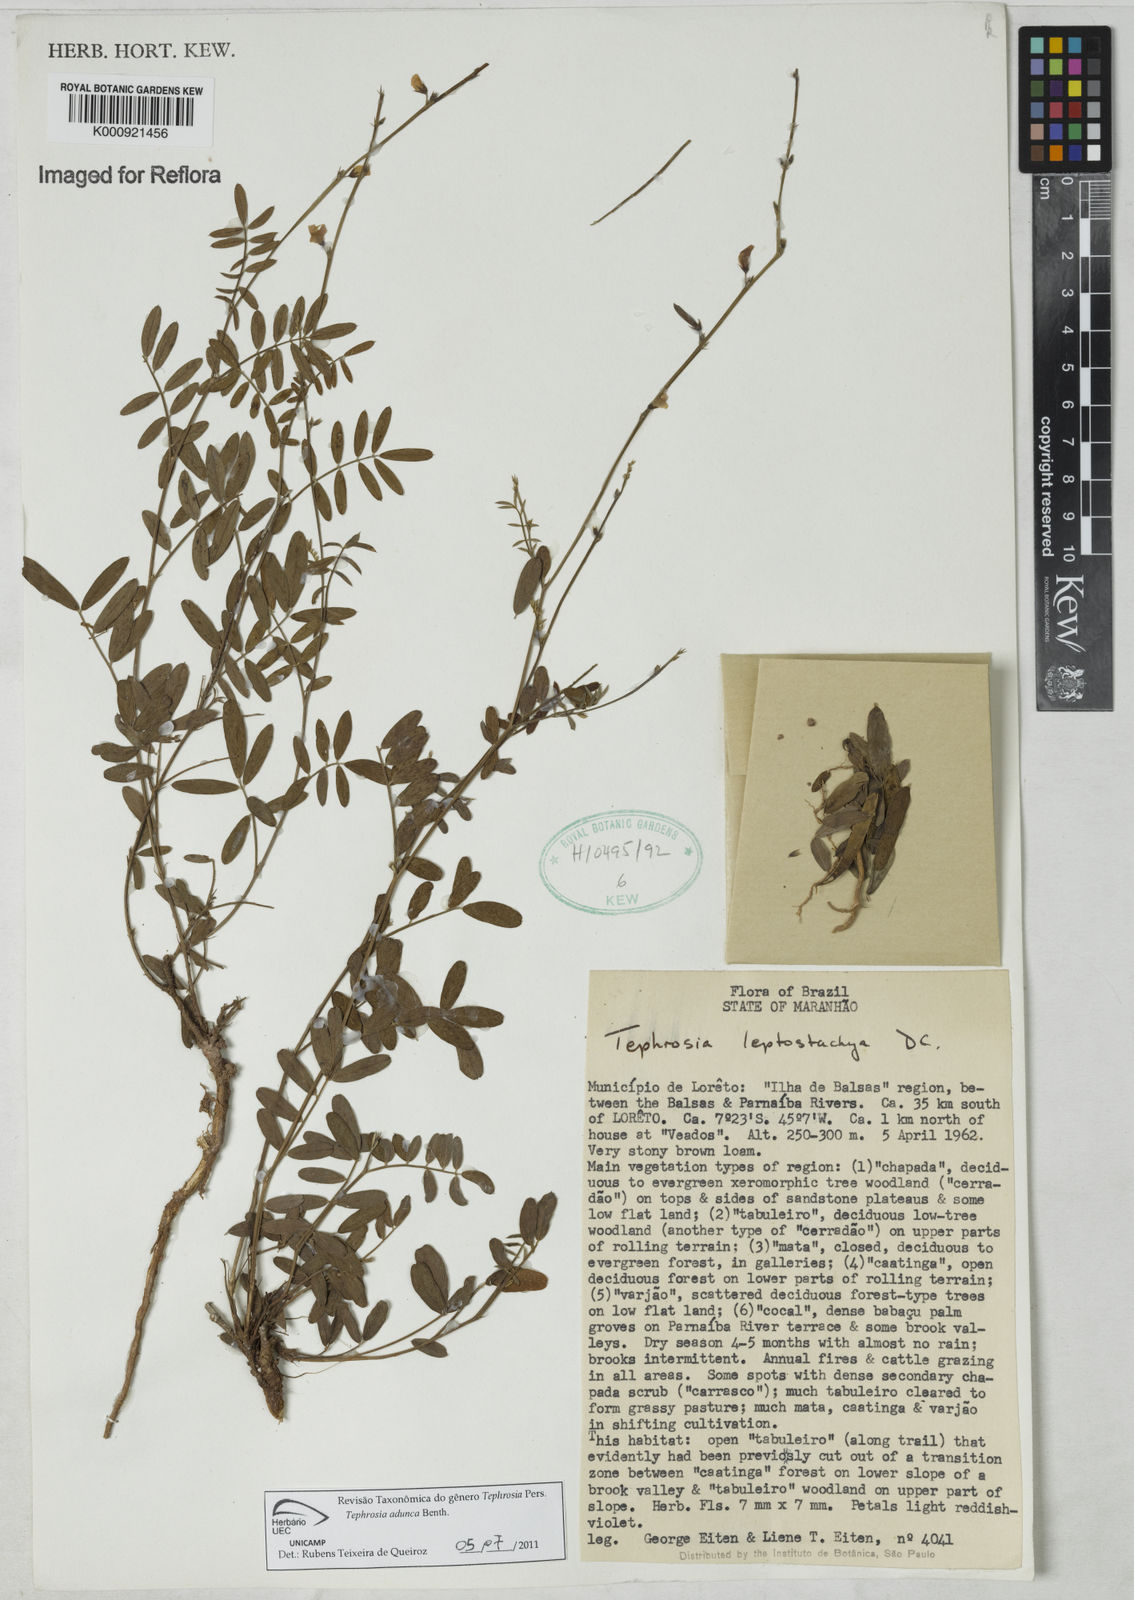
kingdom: Plantae
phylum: Tracheophyta
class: Magnoliopsida
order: Fabales
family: Fabaceae
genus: Tephrosia
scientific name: Tephrosia adunca
